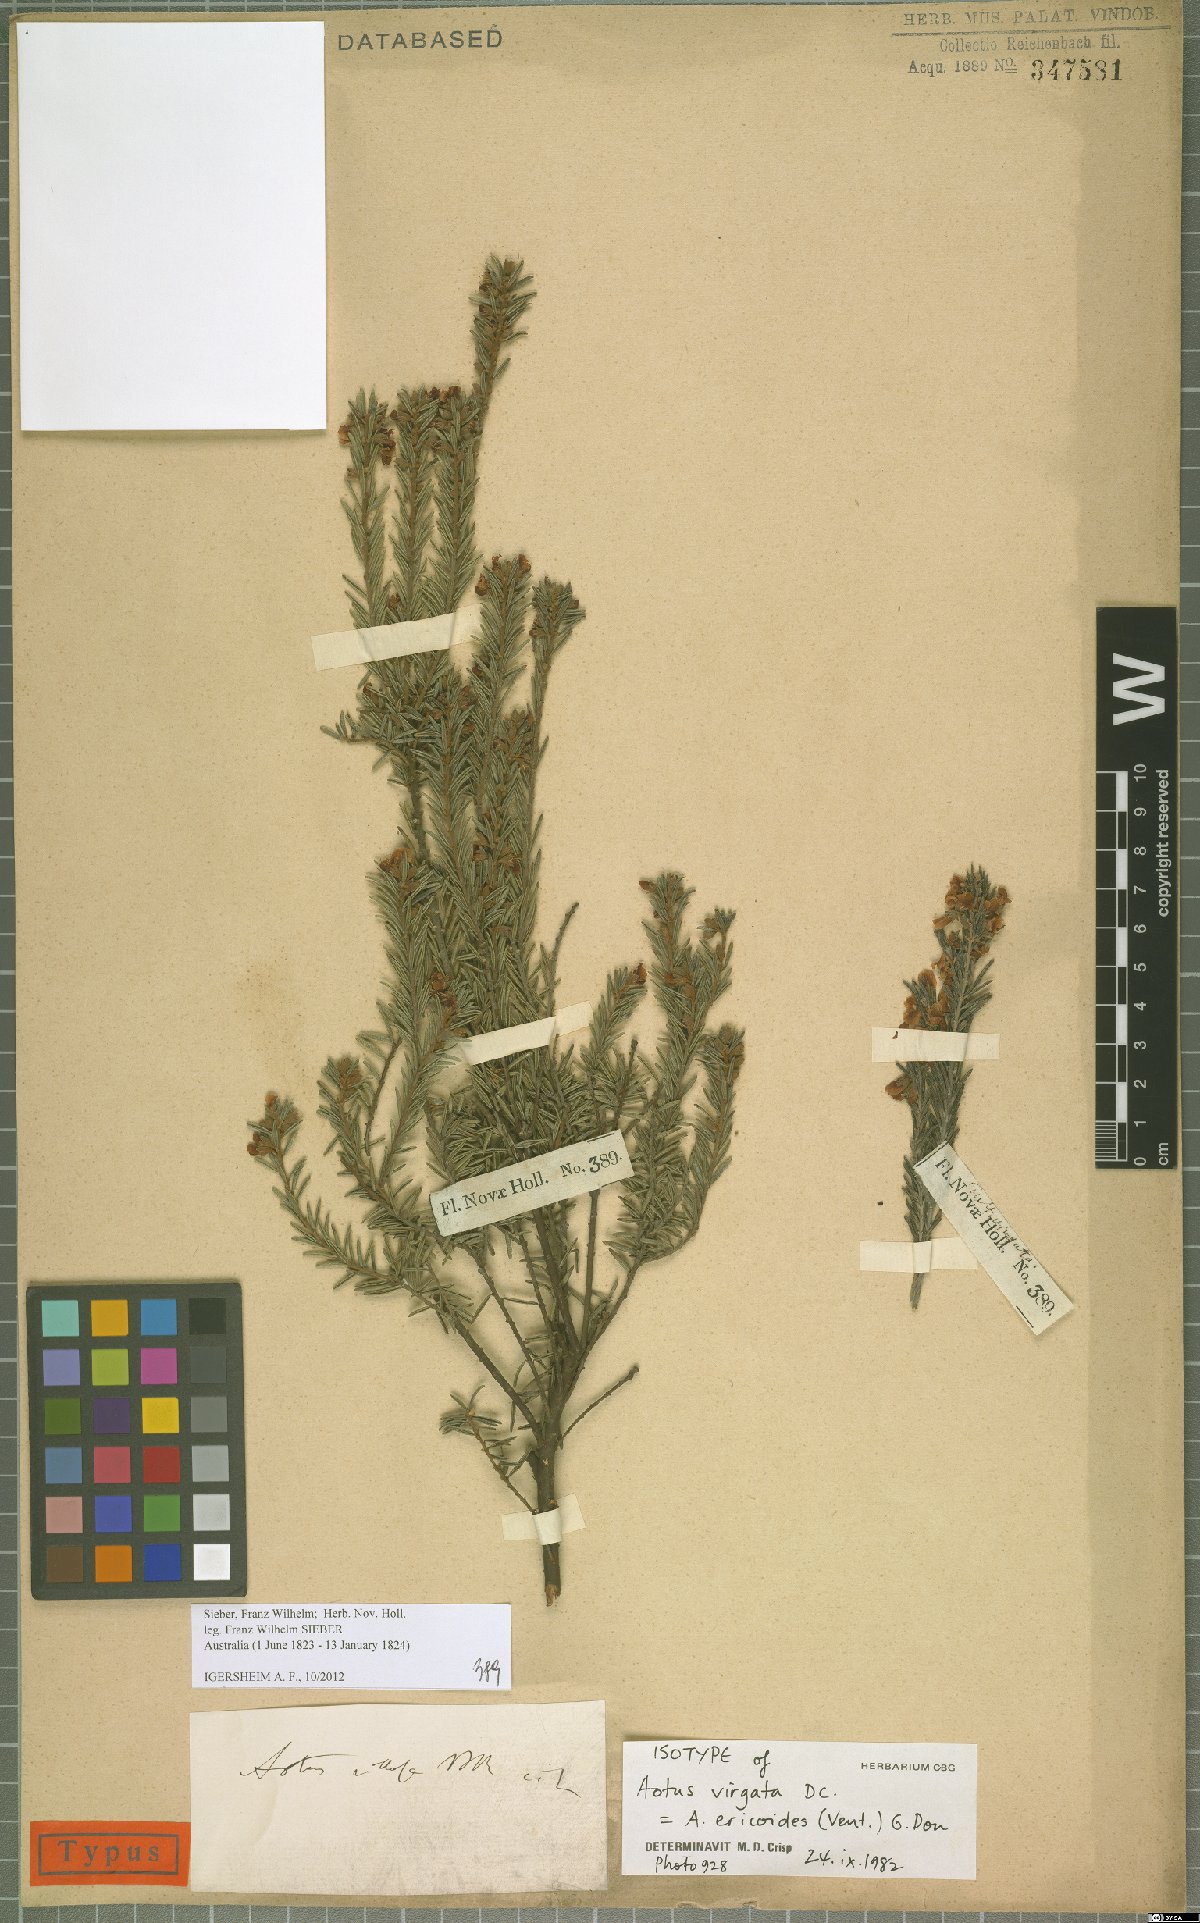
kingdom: Plantae
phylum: Tracheophyta
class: Magnoliopsida
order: Fabales
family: Fabaceae
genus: Aotus
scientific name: Aotus ericoides
